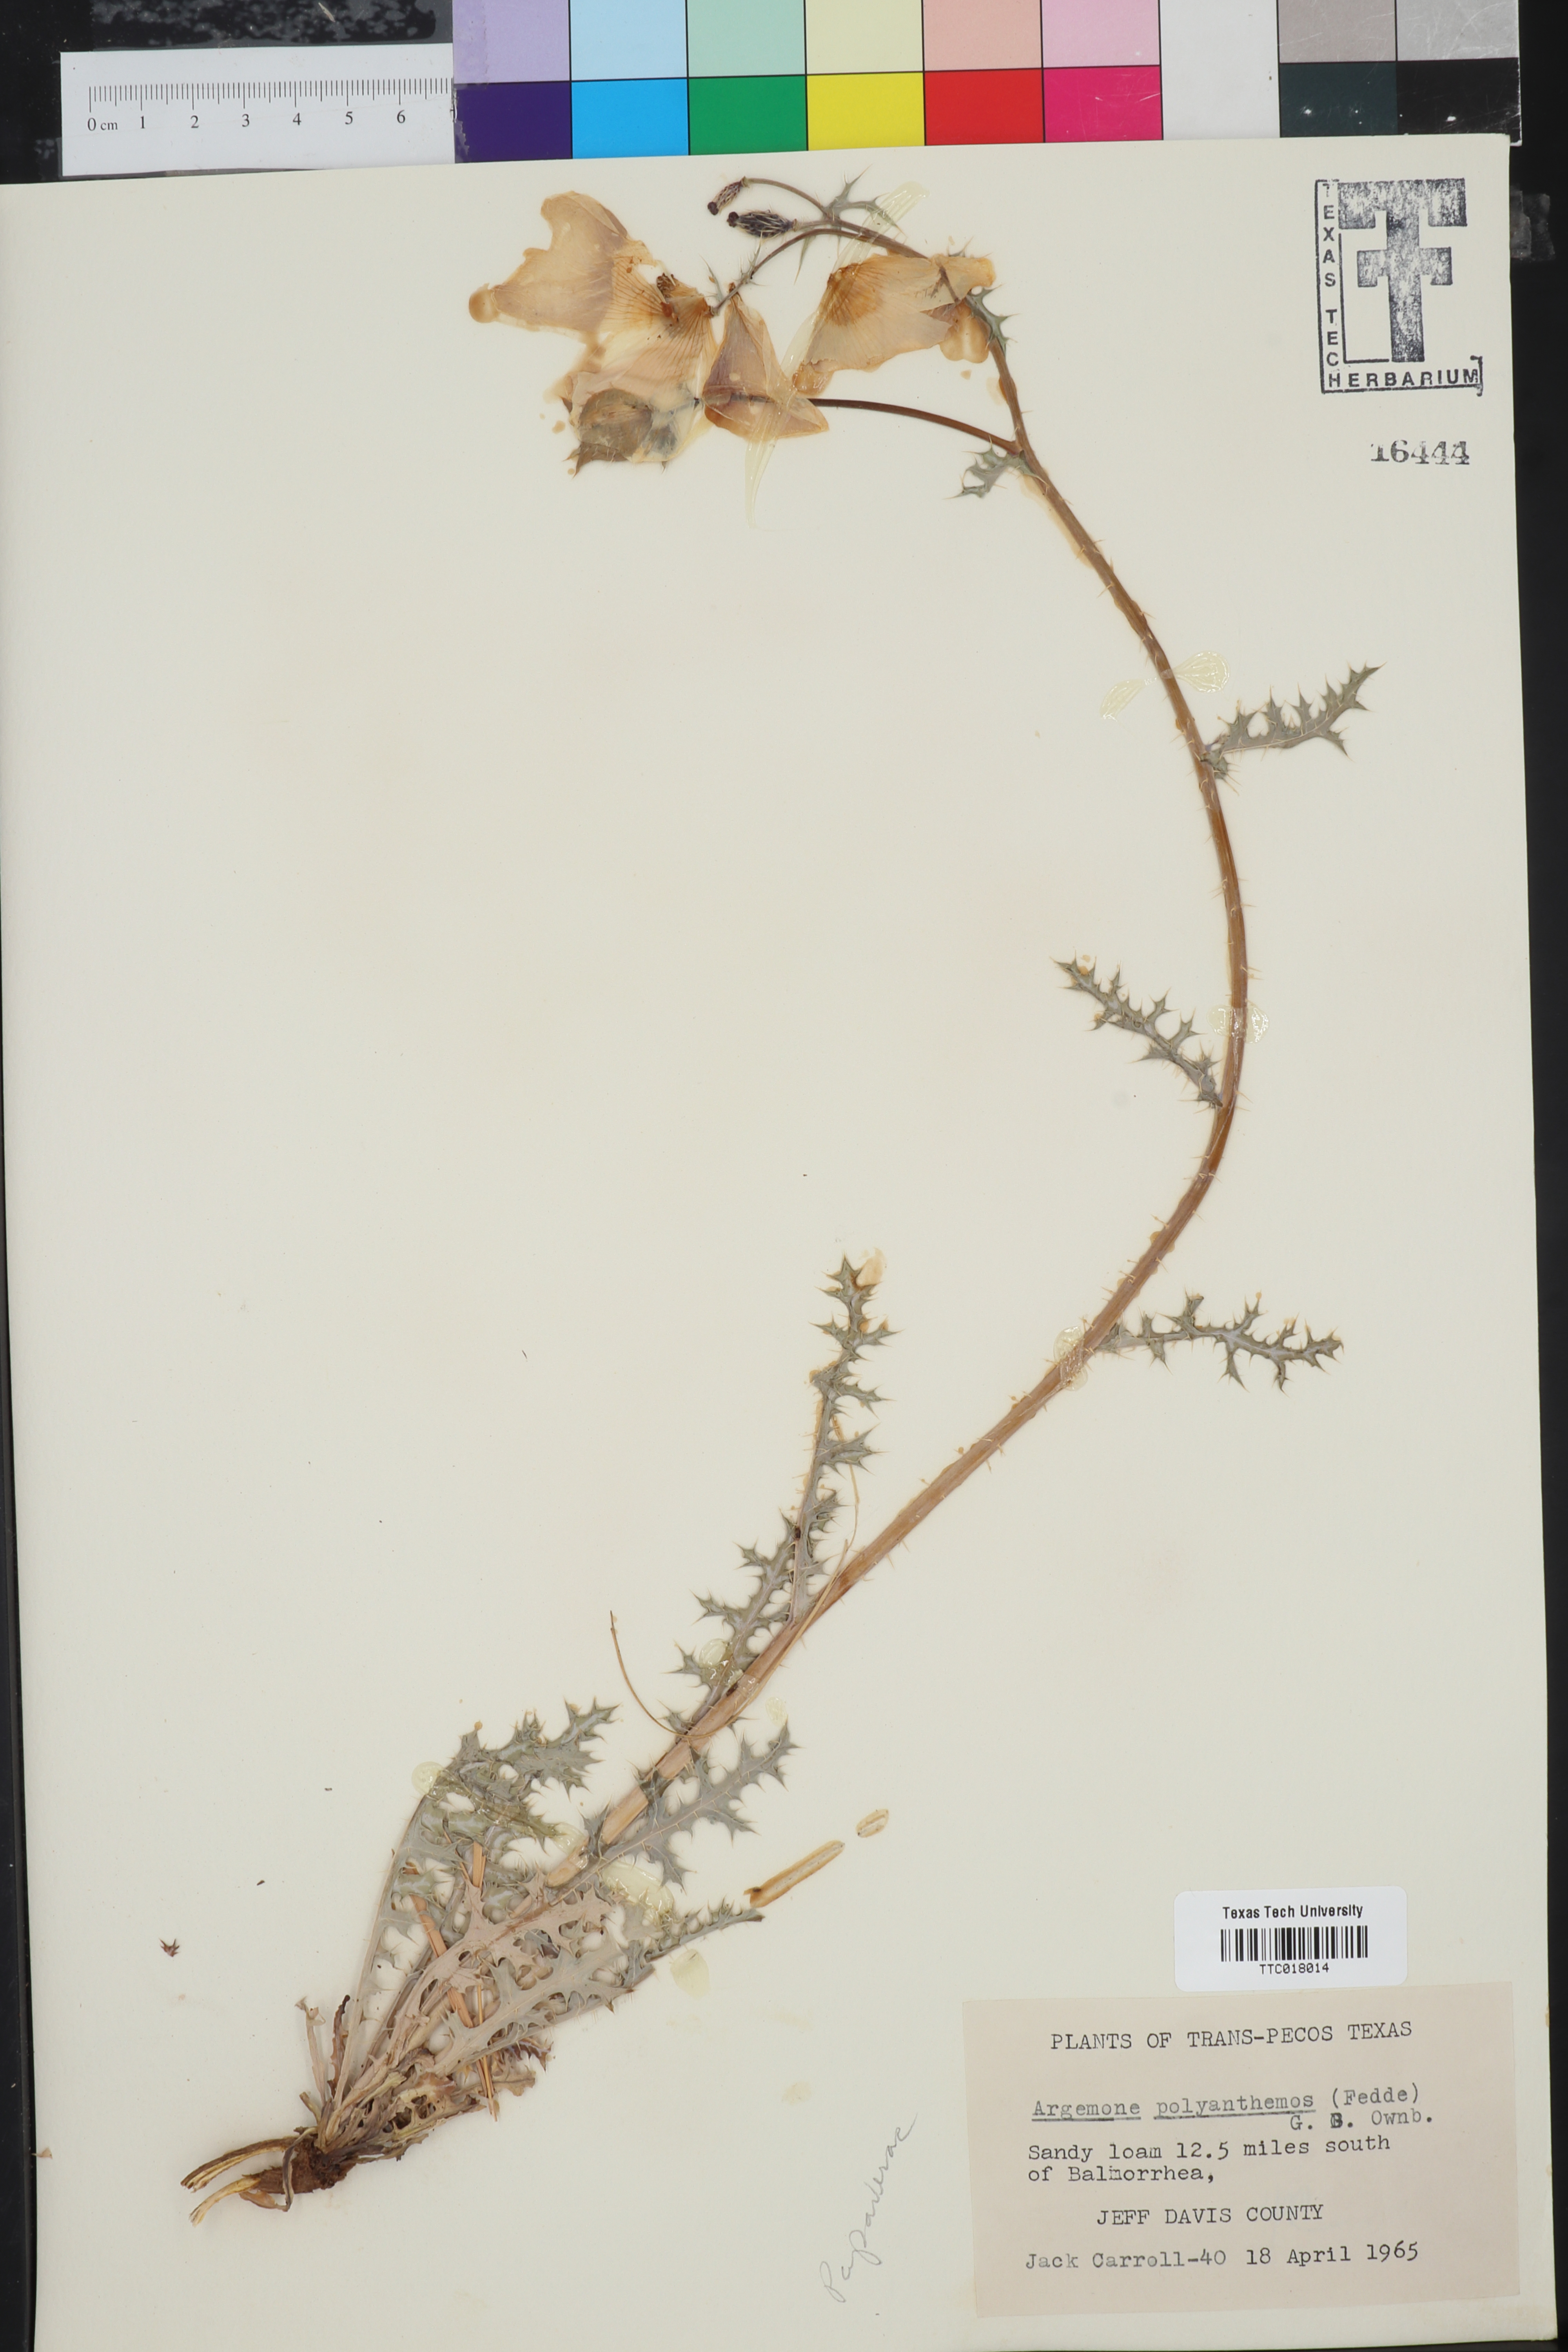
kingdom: Plantae
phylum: Tracheophyta
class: Magnoliopsida
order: Ranunculales
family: Papaveraceae
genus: Argemone
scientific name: Argemone polyanthemos
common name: Plains prickly-poppy
